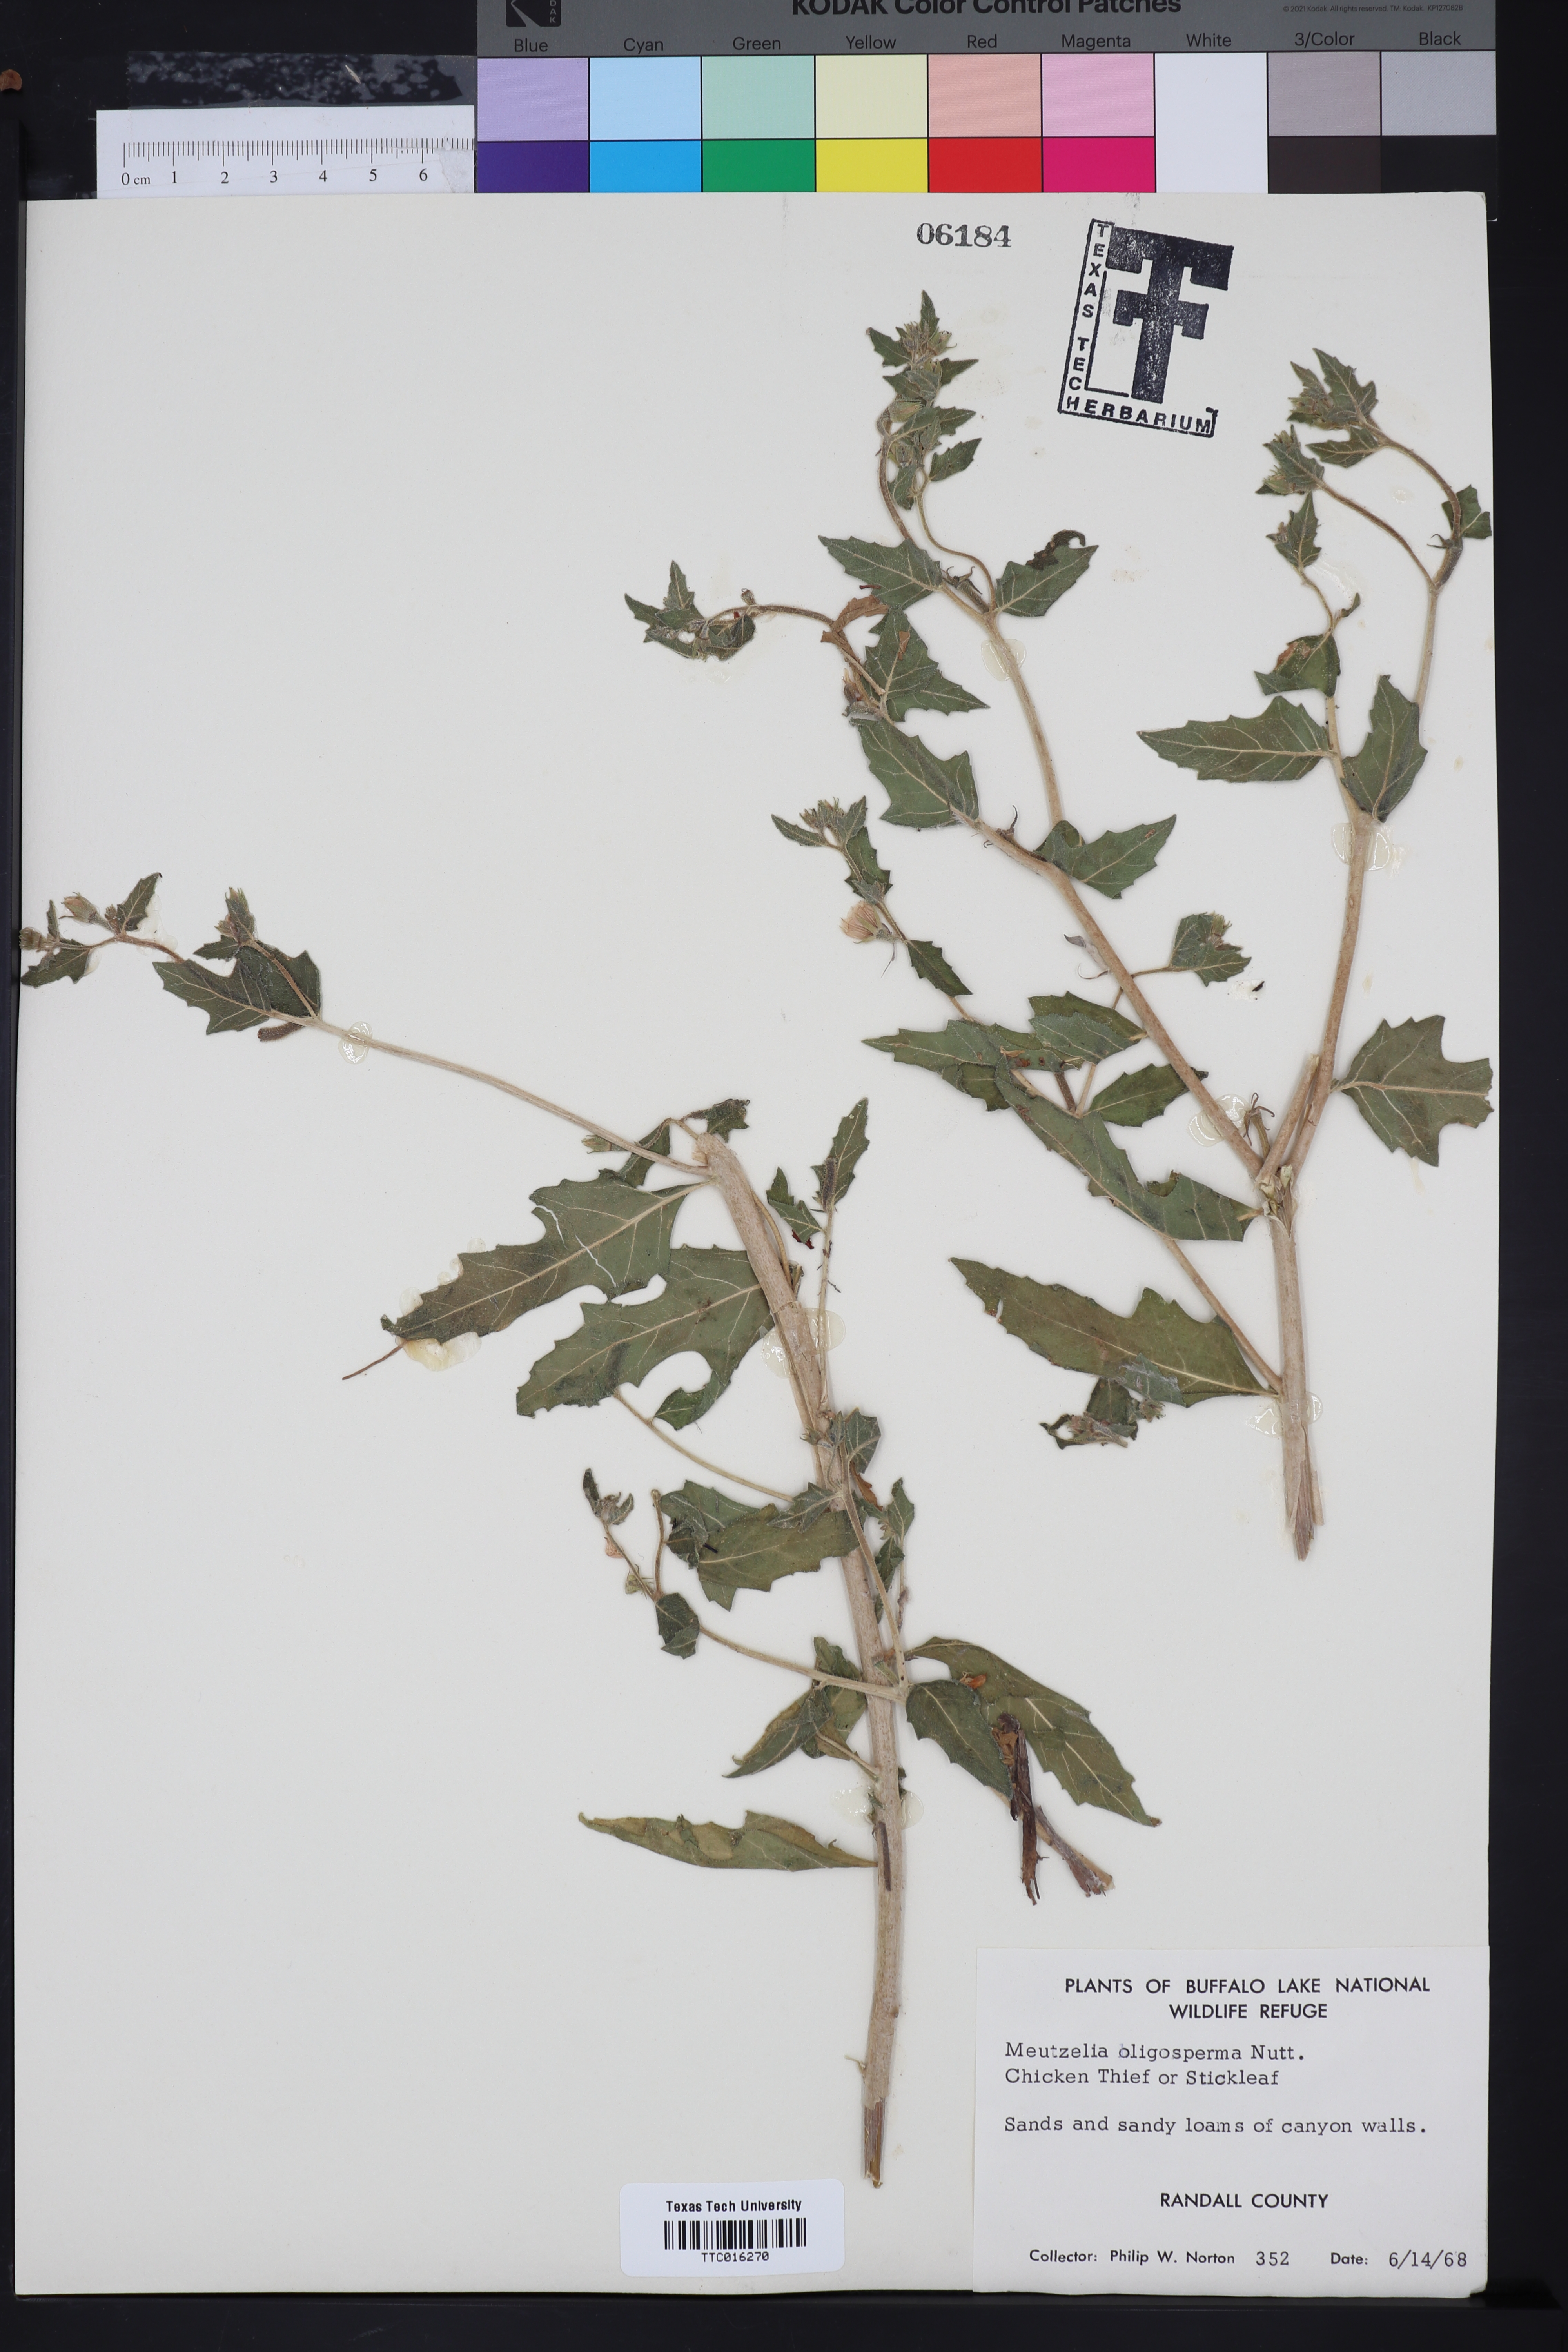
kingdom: Plantae
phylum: Tracheophyta
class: Magnoliopsida
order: Cornales
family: Loasaceae
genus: Mentzelia
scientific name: Mentzelia oligosperma
